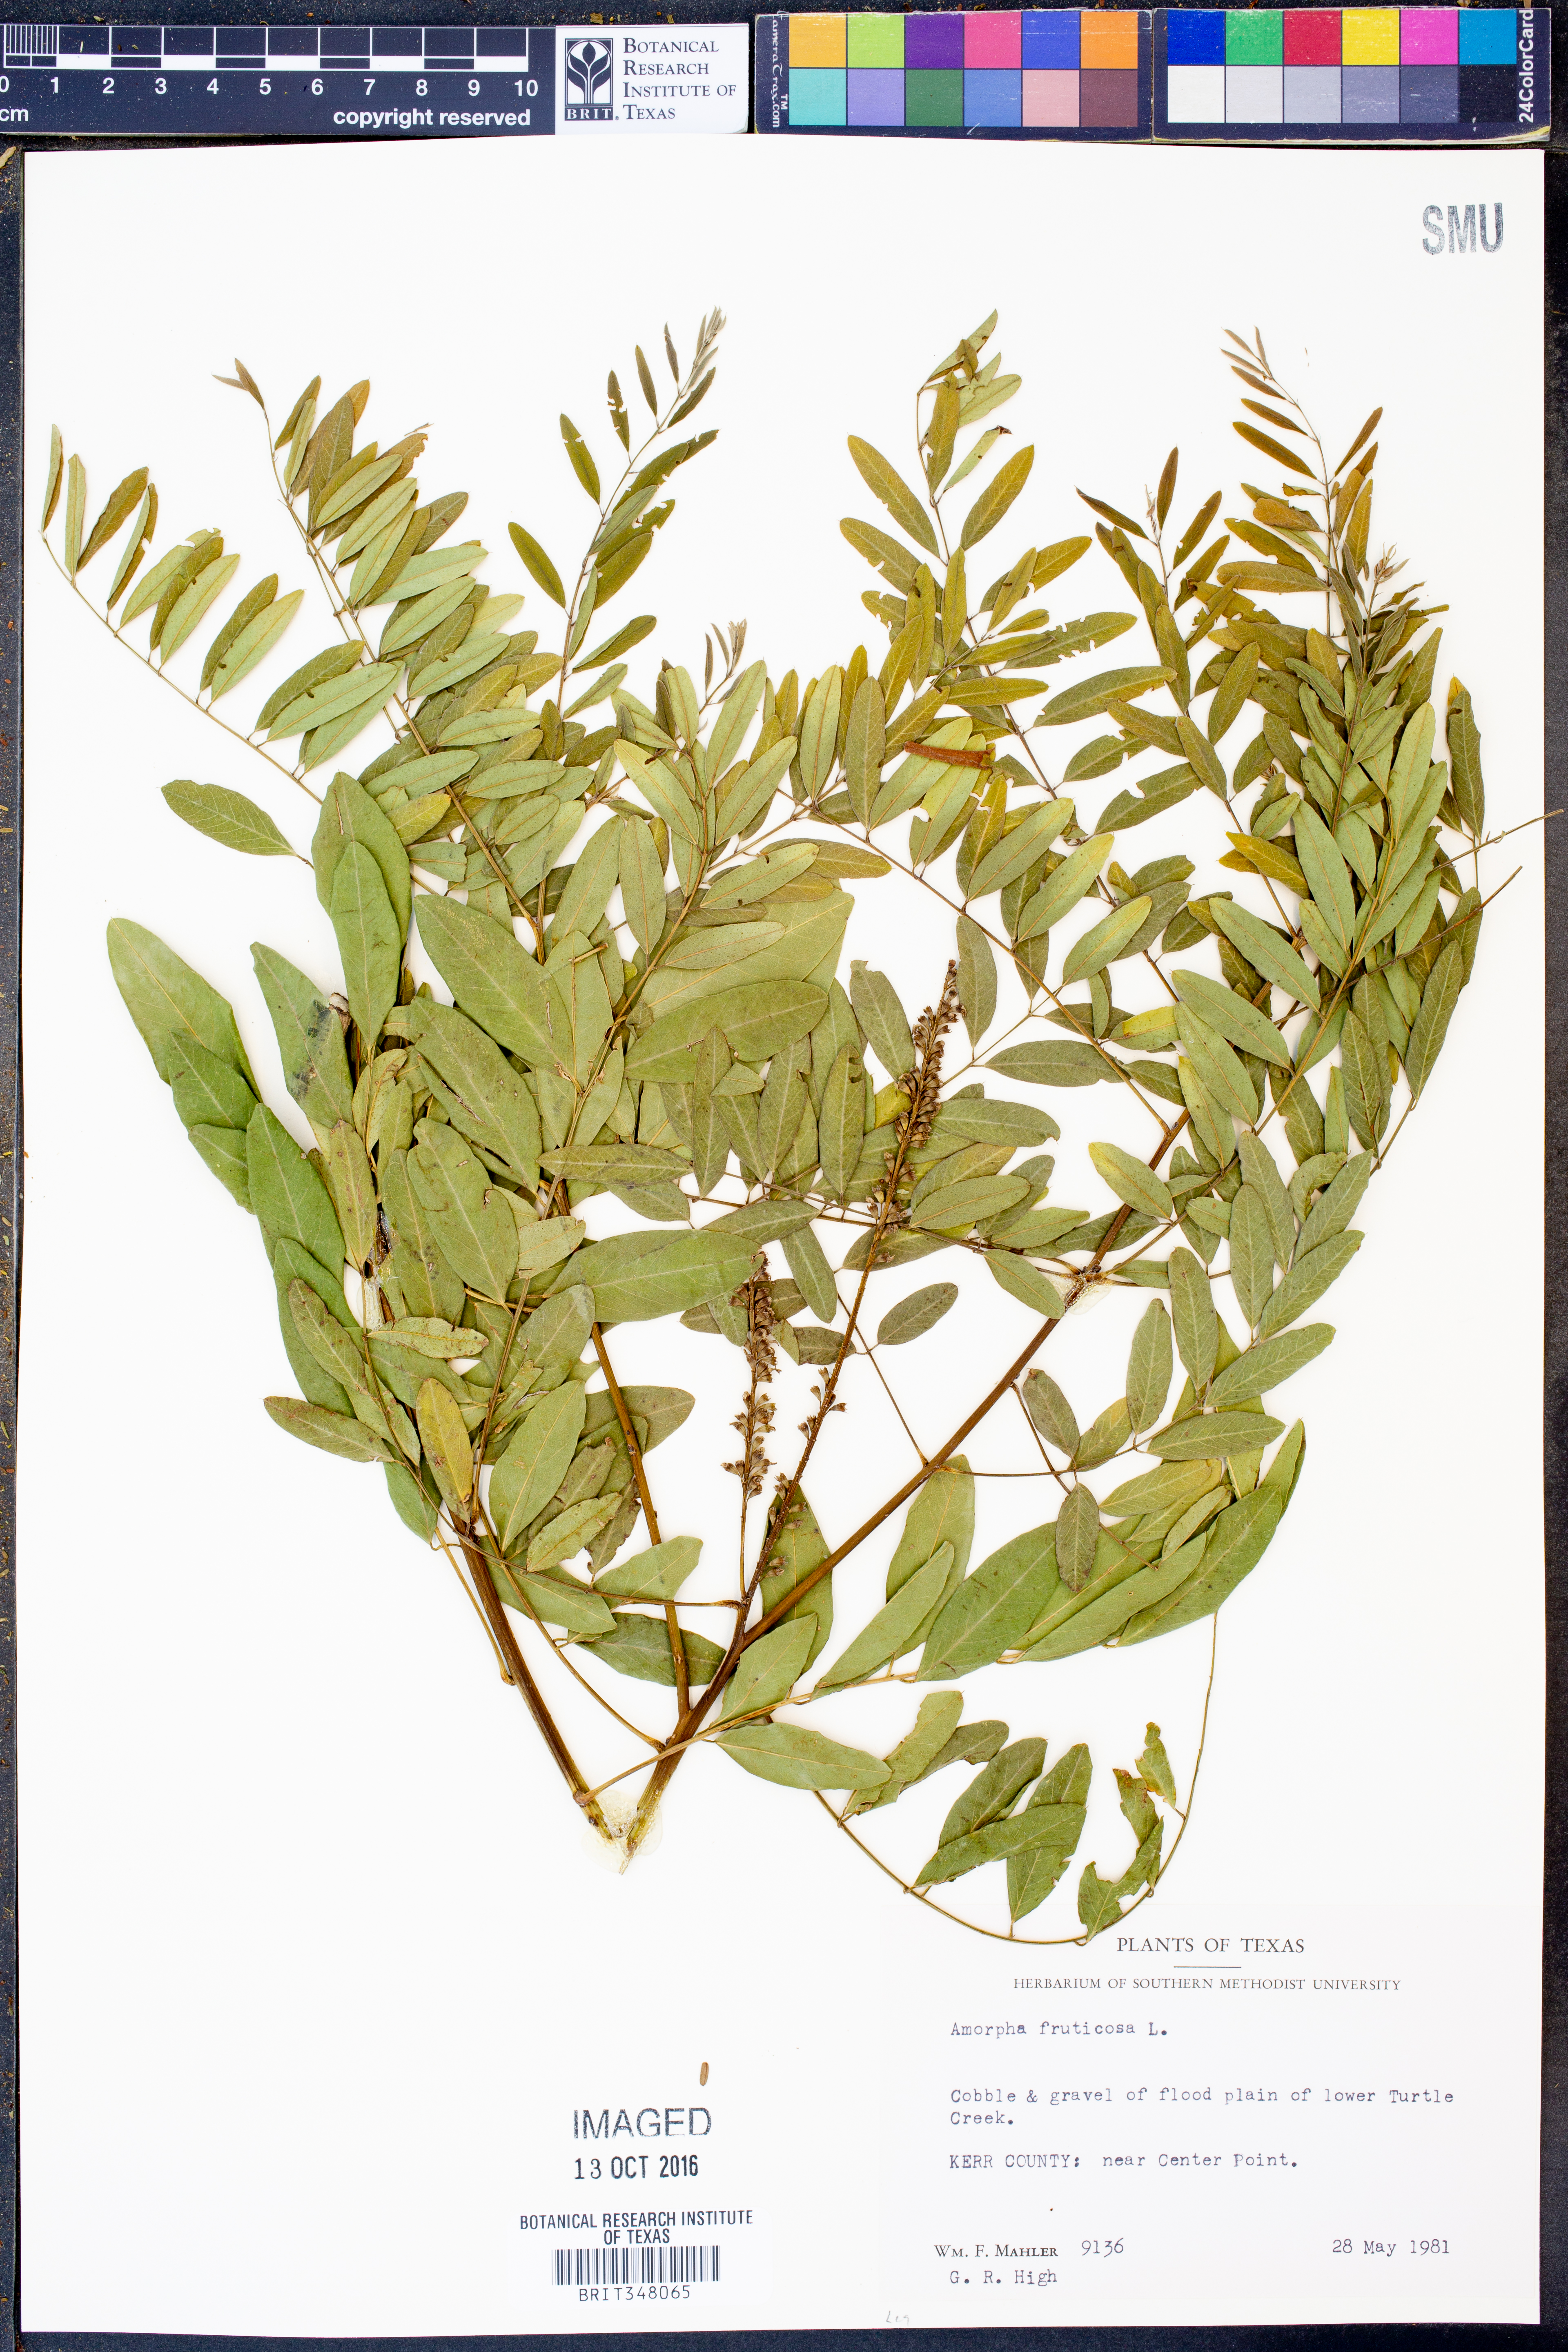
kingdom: Plantae
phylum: Tracheophyta
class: Magnoliopsida
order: Fabales
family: Fabaceae
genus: Amorpha
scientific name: Amorpha fruticosa
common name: False indigo
